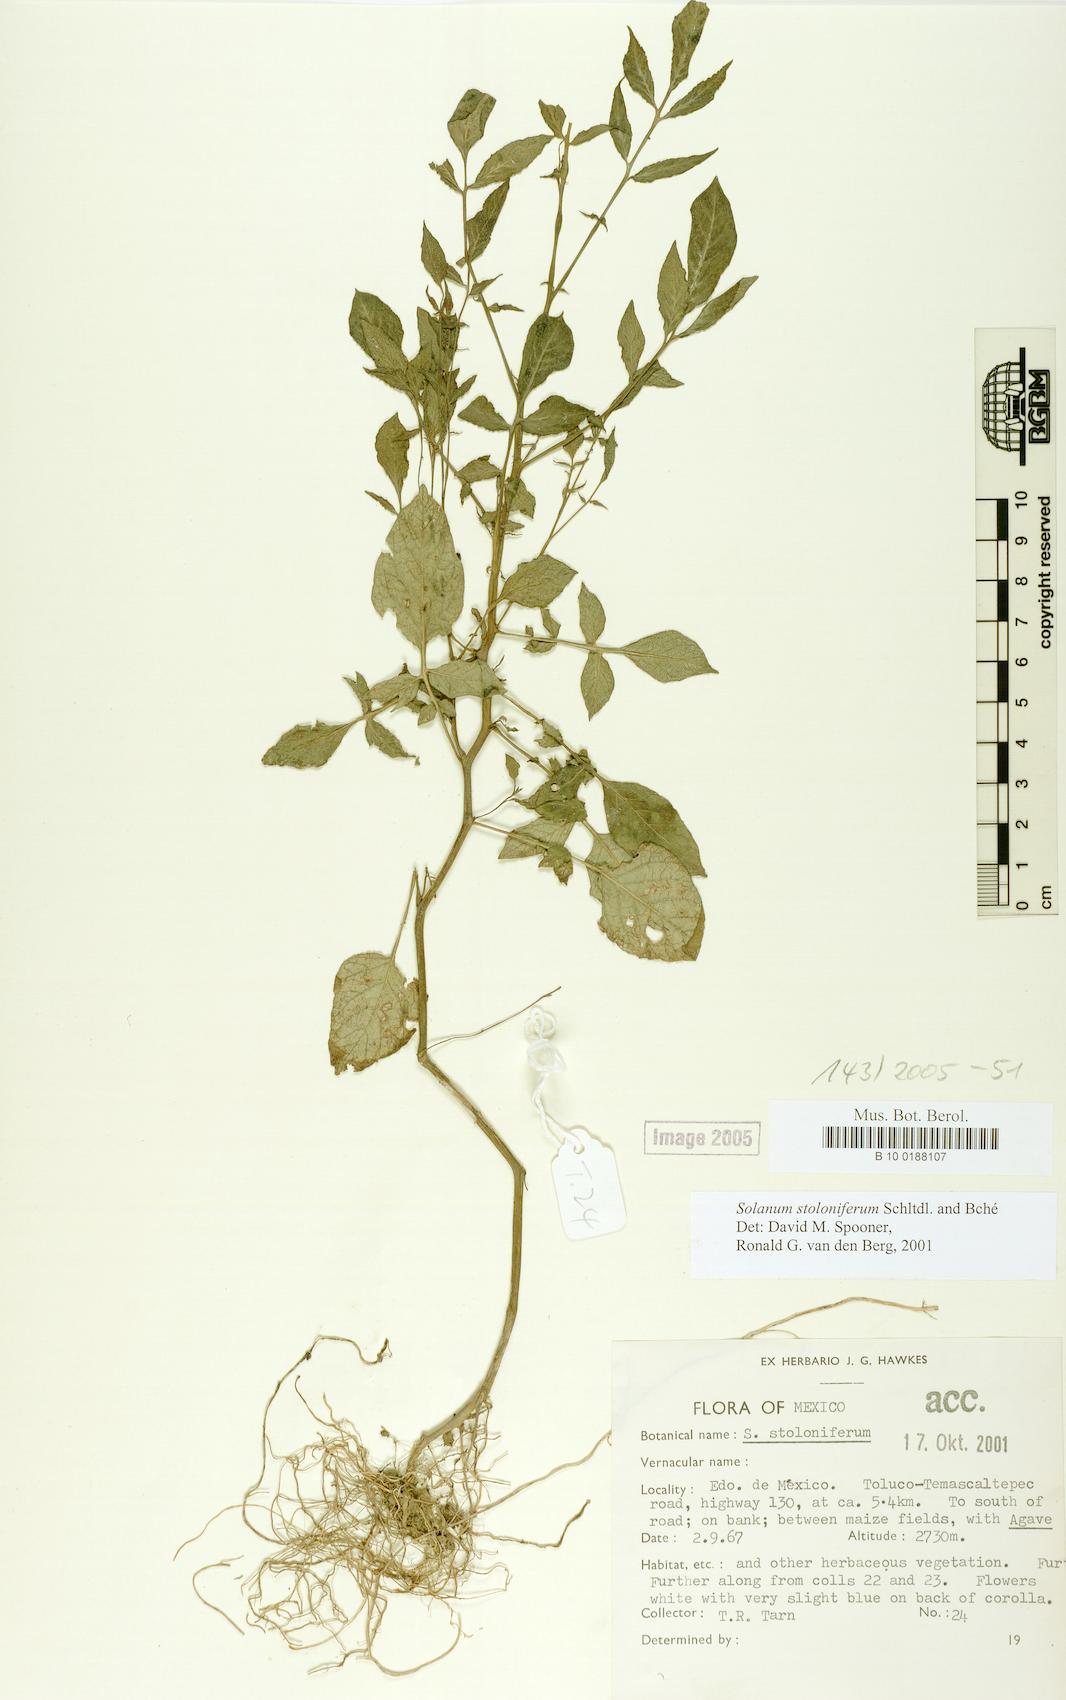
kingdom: Plantae
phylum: Tracheophyta
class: Magnoliopsida
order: Solanales
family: Solanaceae
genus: Solanum
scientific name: Solanum stoloniferum
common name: Fendler's nighshade
